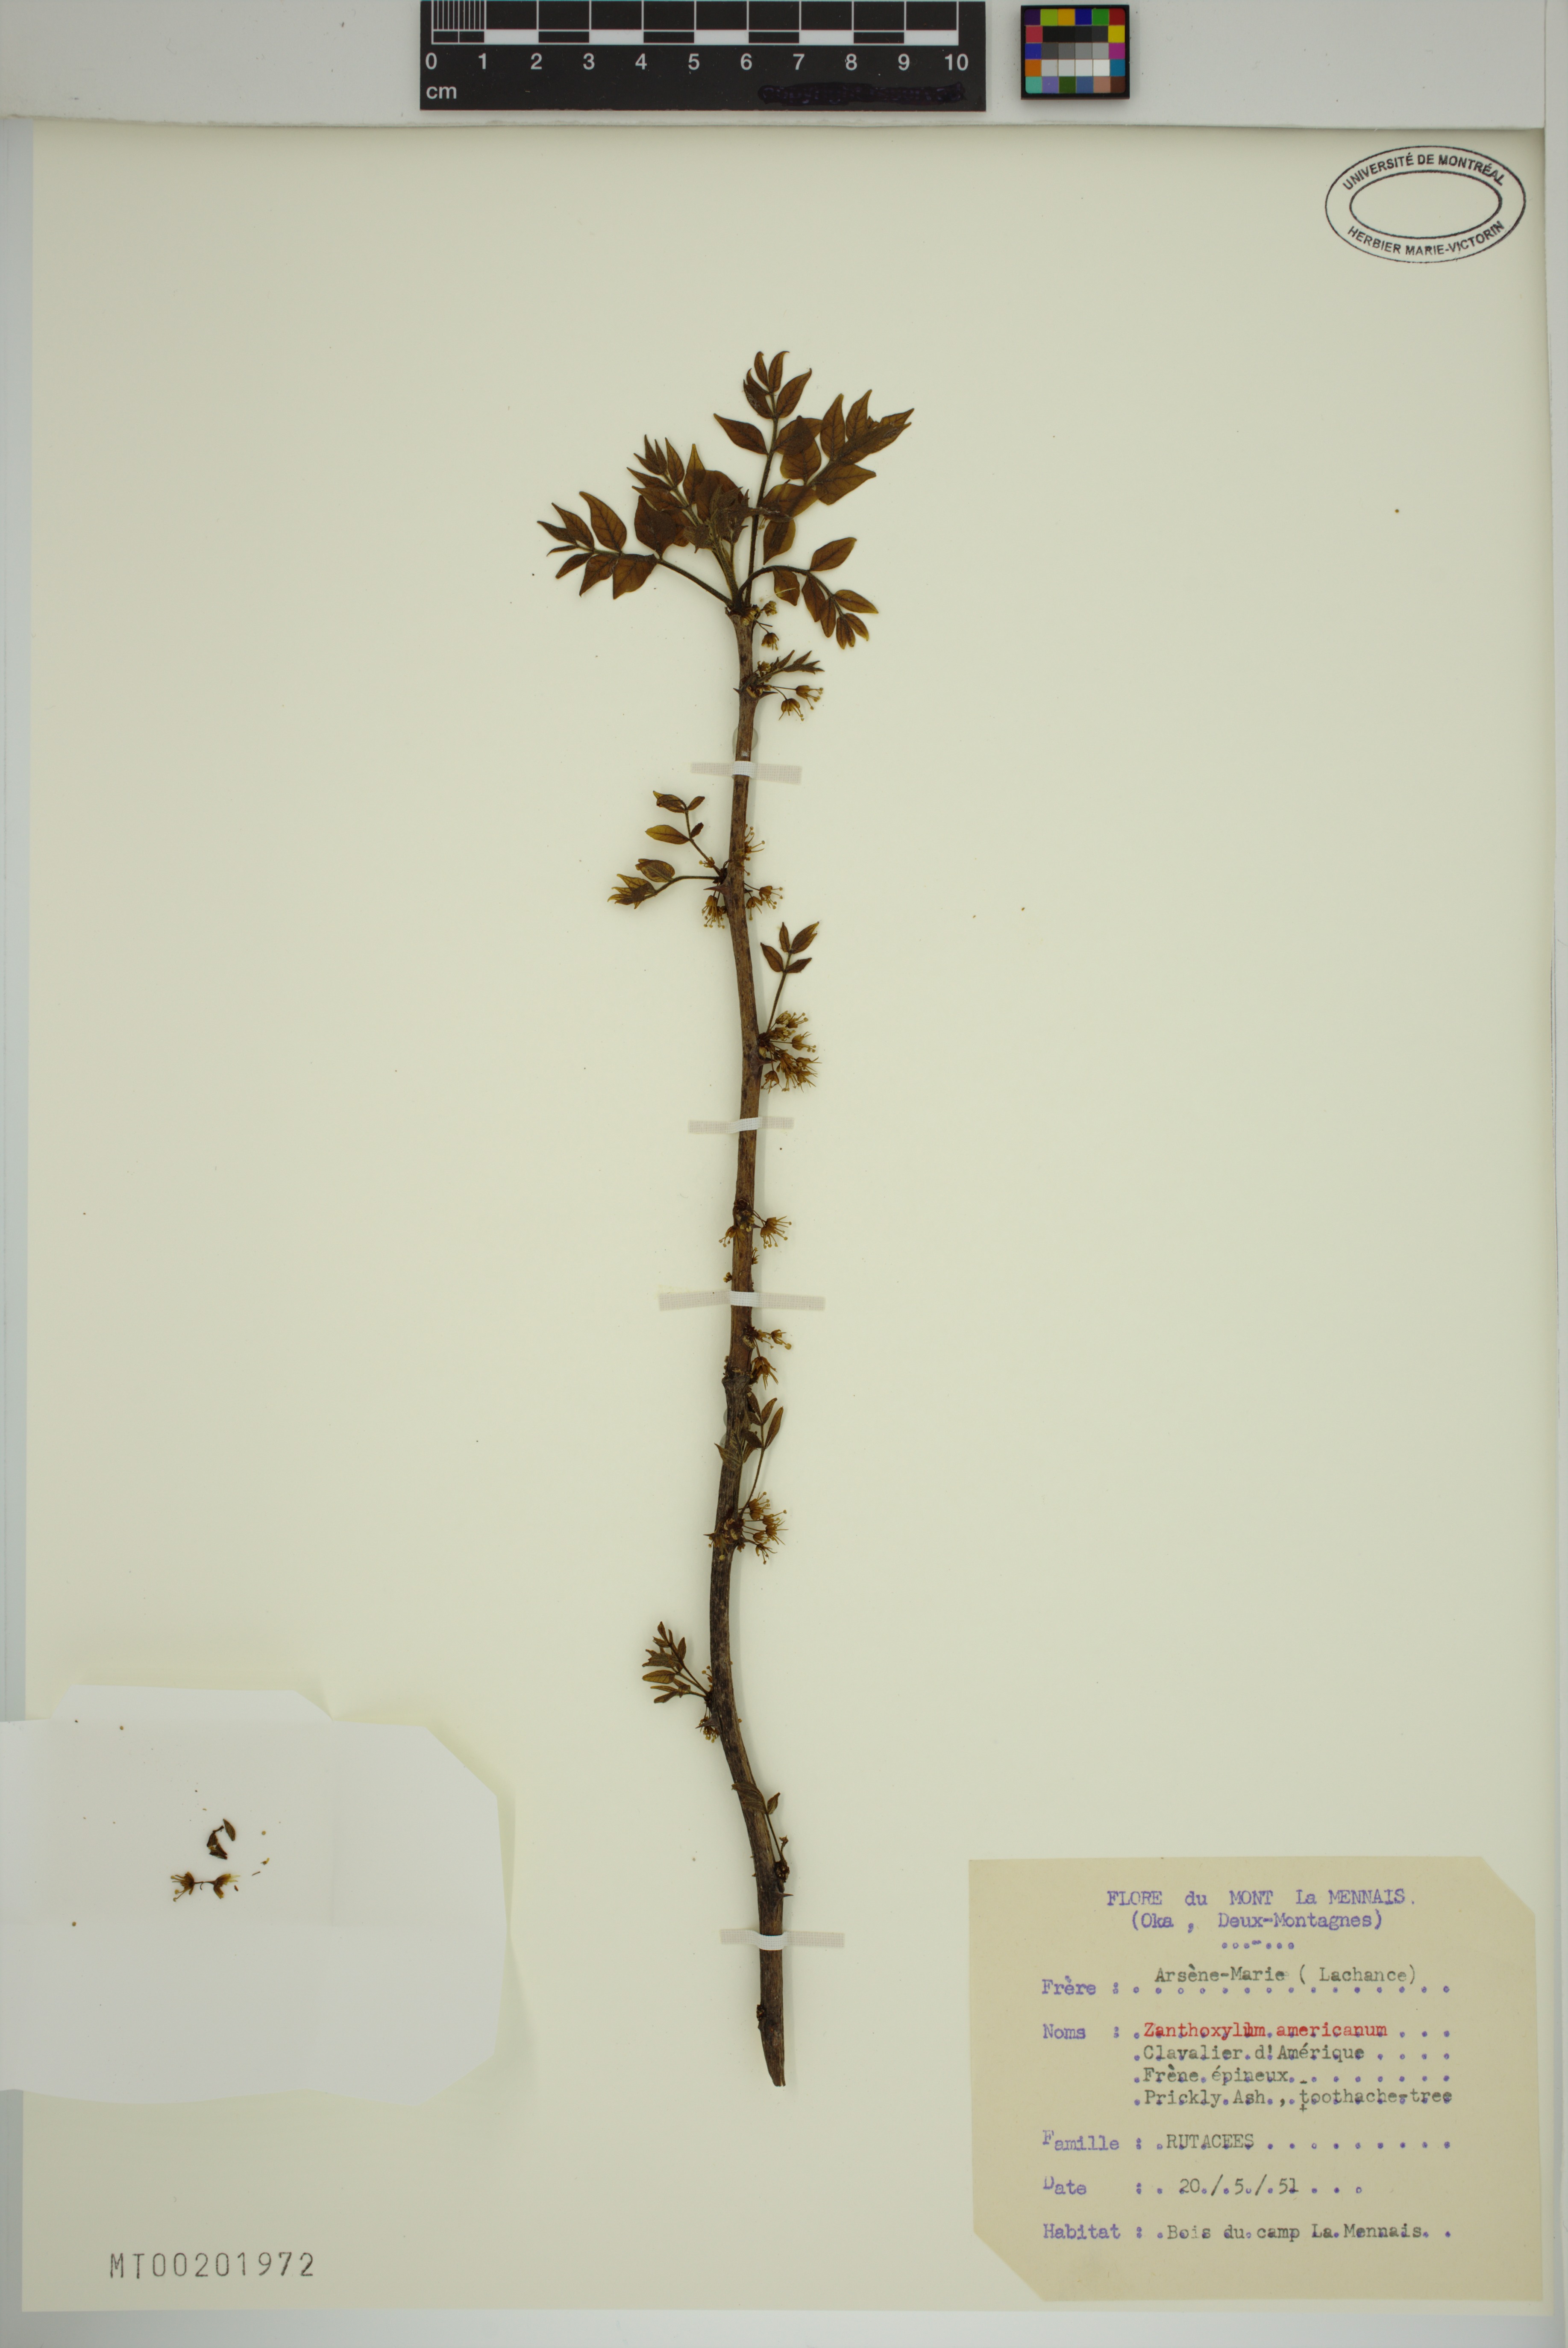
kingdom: Plantae
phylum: Tracheophyta
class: Magnoliopsida
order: Sapindales
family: Rutaceae
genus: Zanthoxylum
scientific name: Zanthoxylum americanum
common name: Northern prickly-ash
